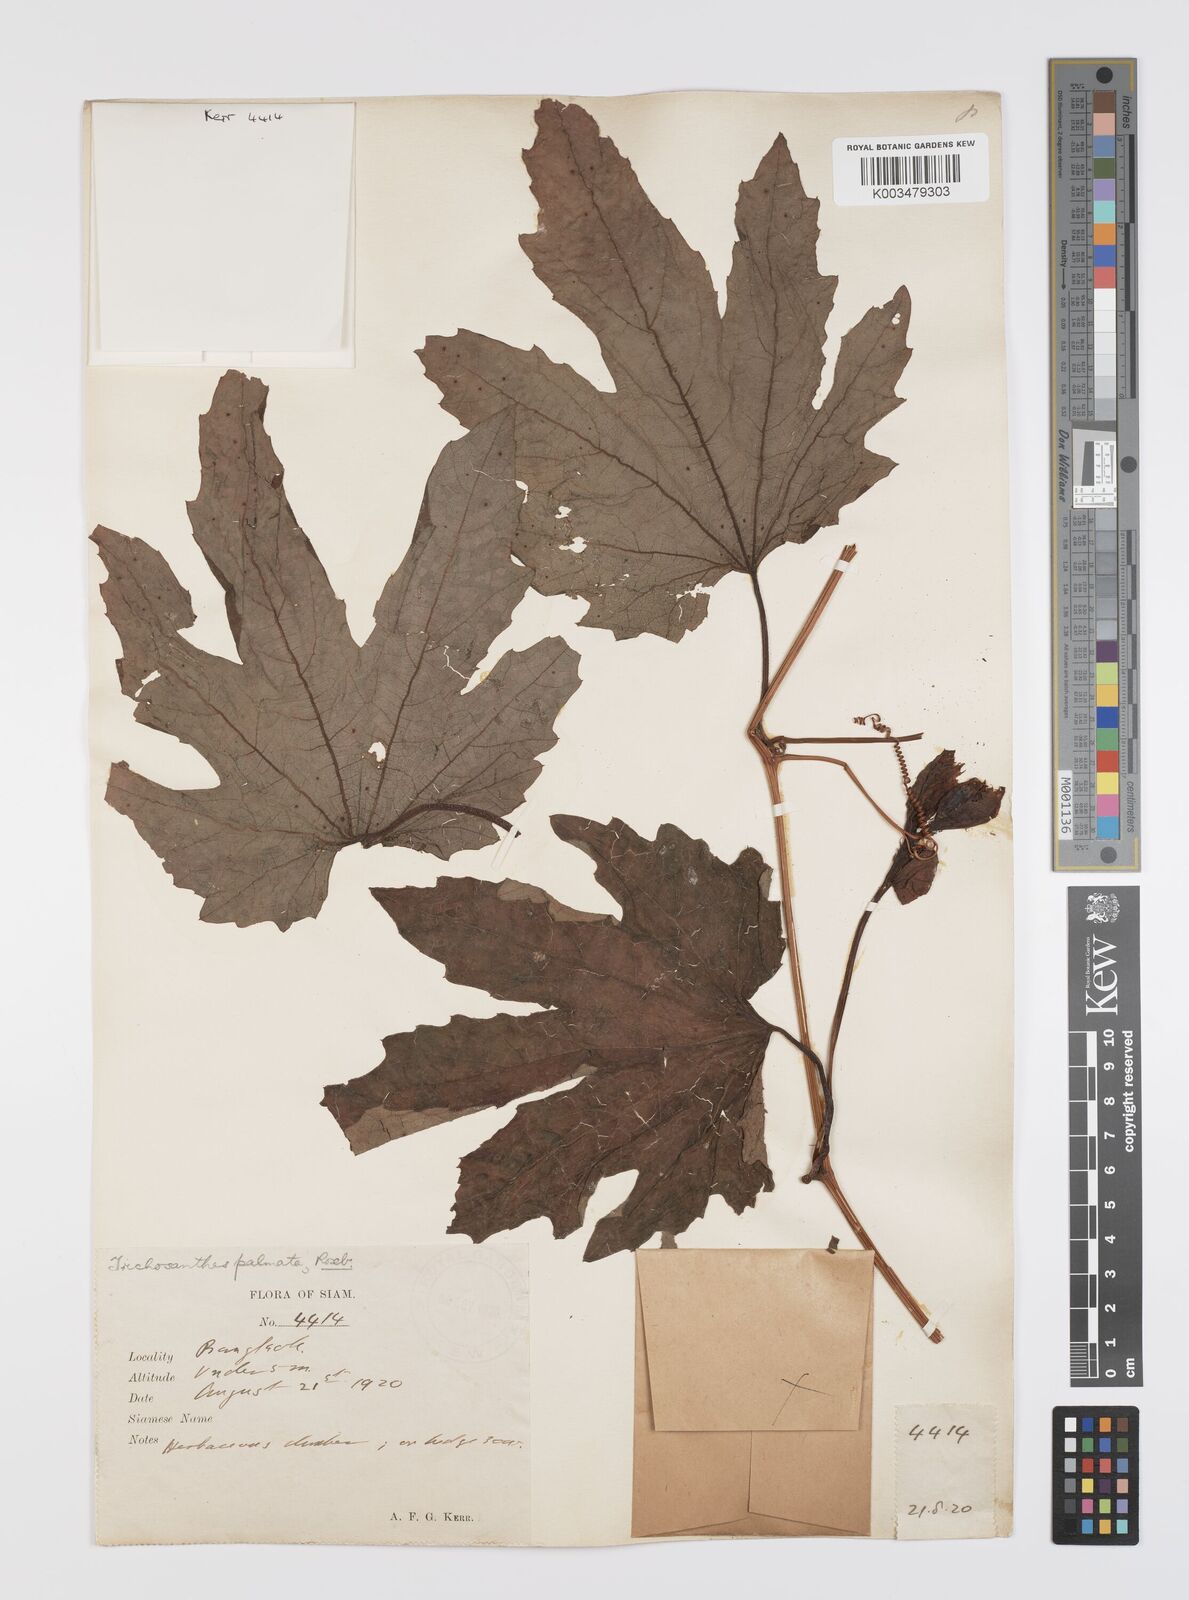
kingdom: Plantae
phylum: Tracheophyta
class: Magnoliopsida
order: Cucurbitales
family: Cucurbitaceae
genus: Trichosanthes
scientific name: Trichosanthes rubriflos
